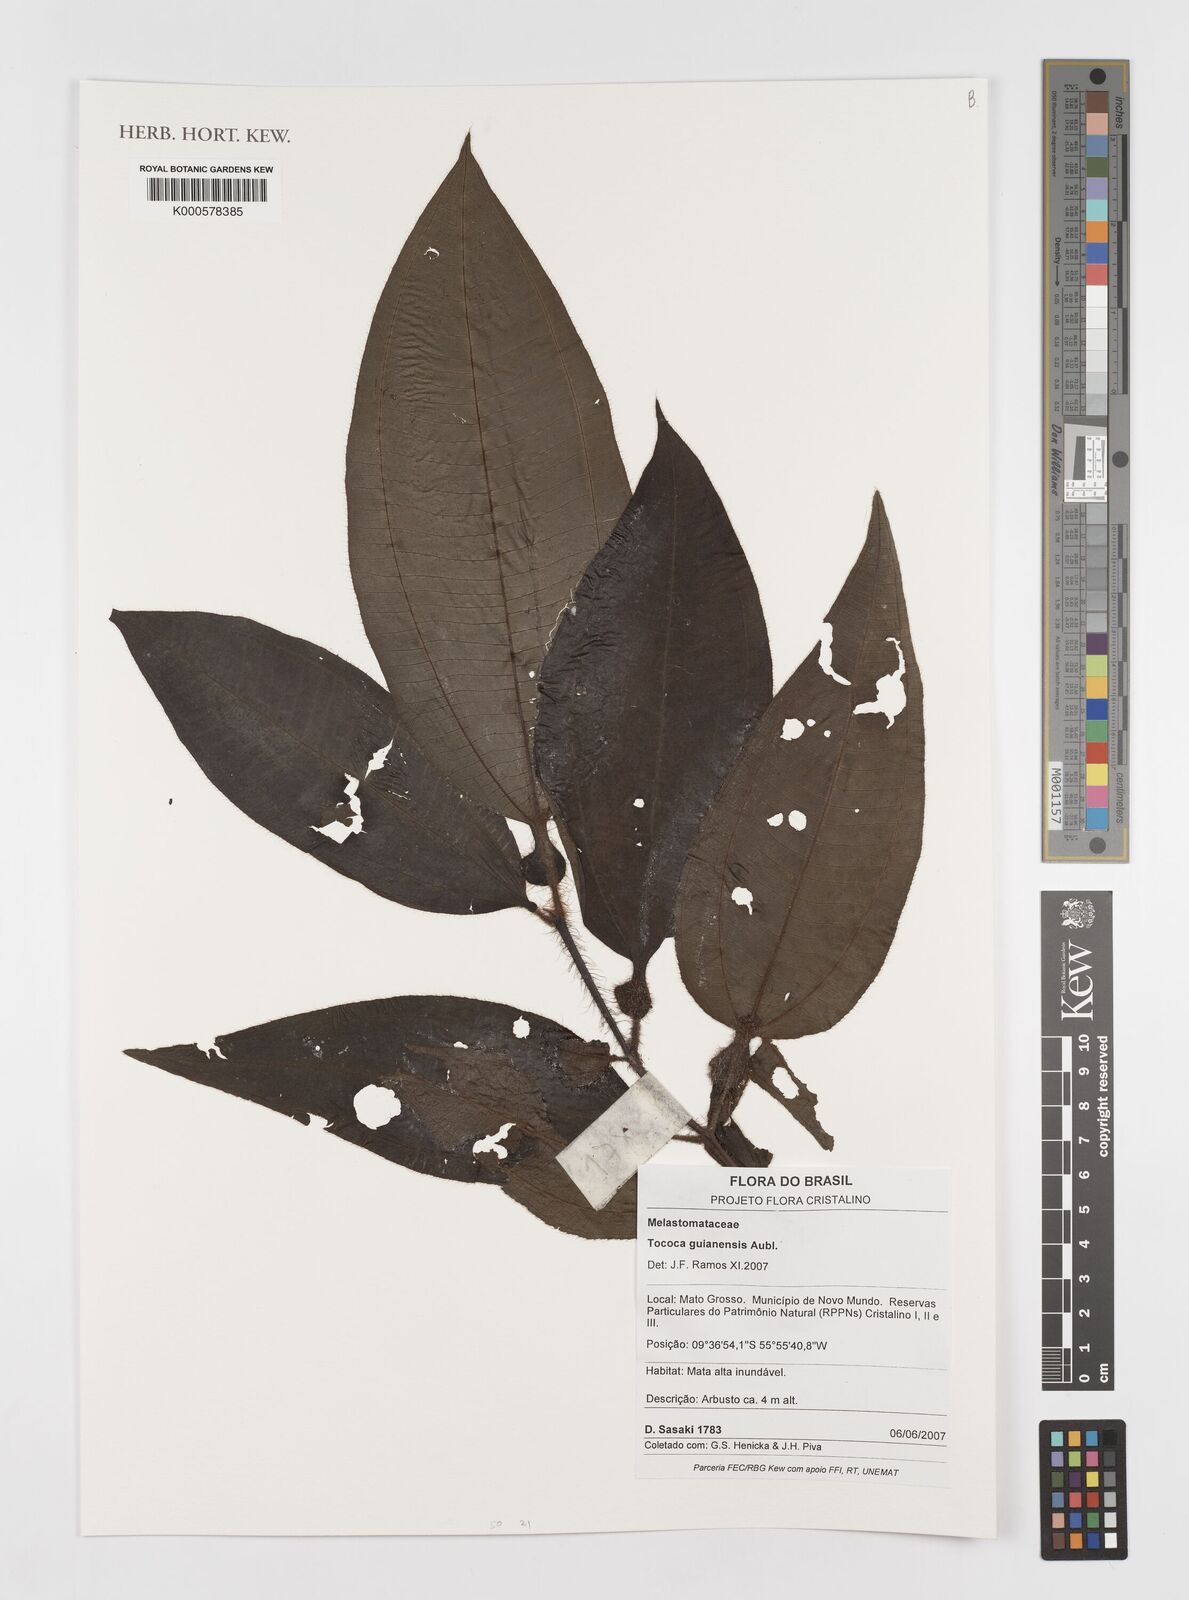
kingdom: Plantae
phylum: Tracheophyta
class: Magnoliopsida
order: Myrtales
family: Melastomataceae
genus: Miconia
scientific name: Miconia tococa
